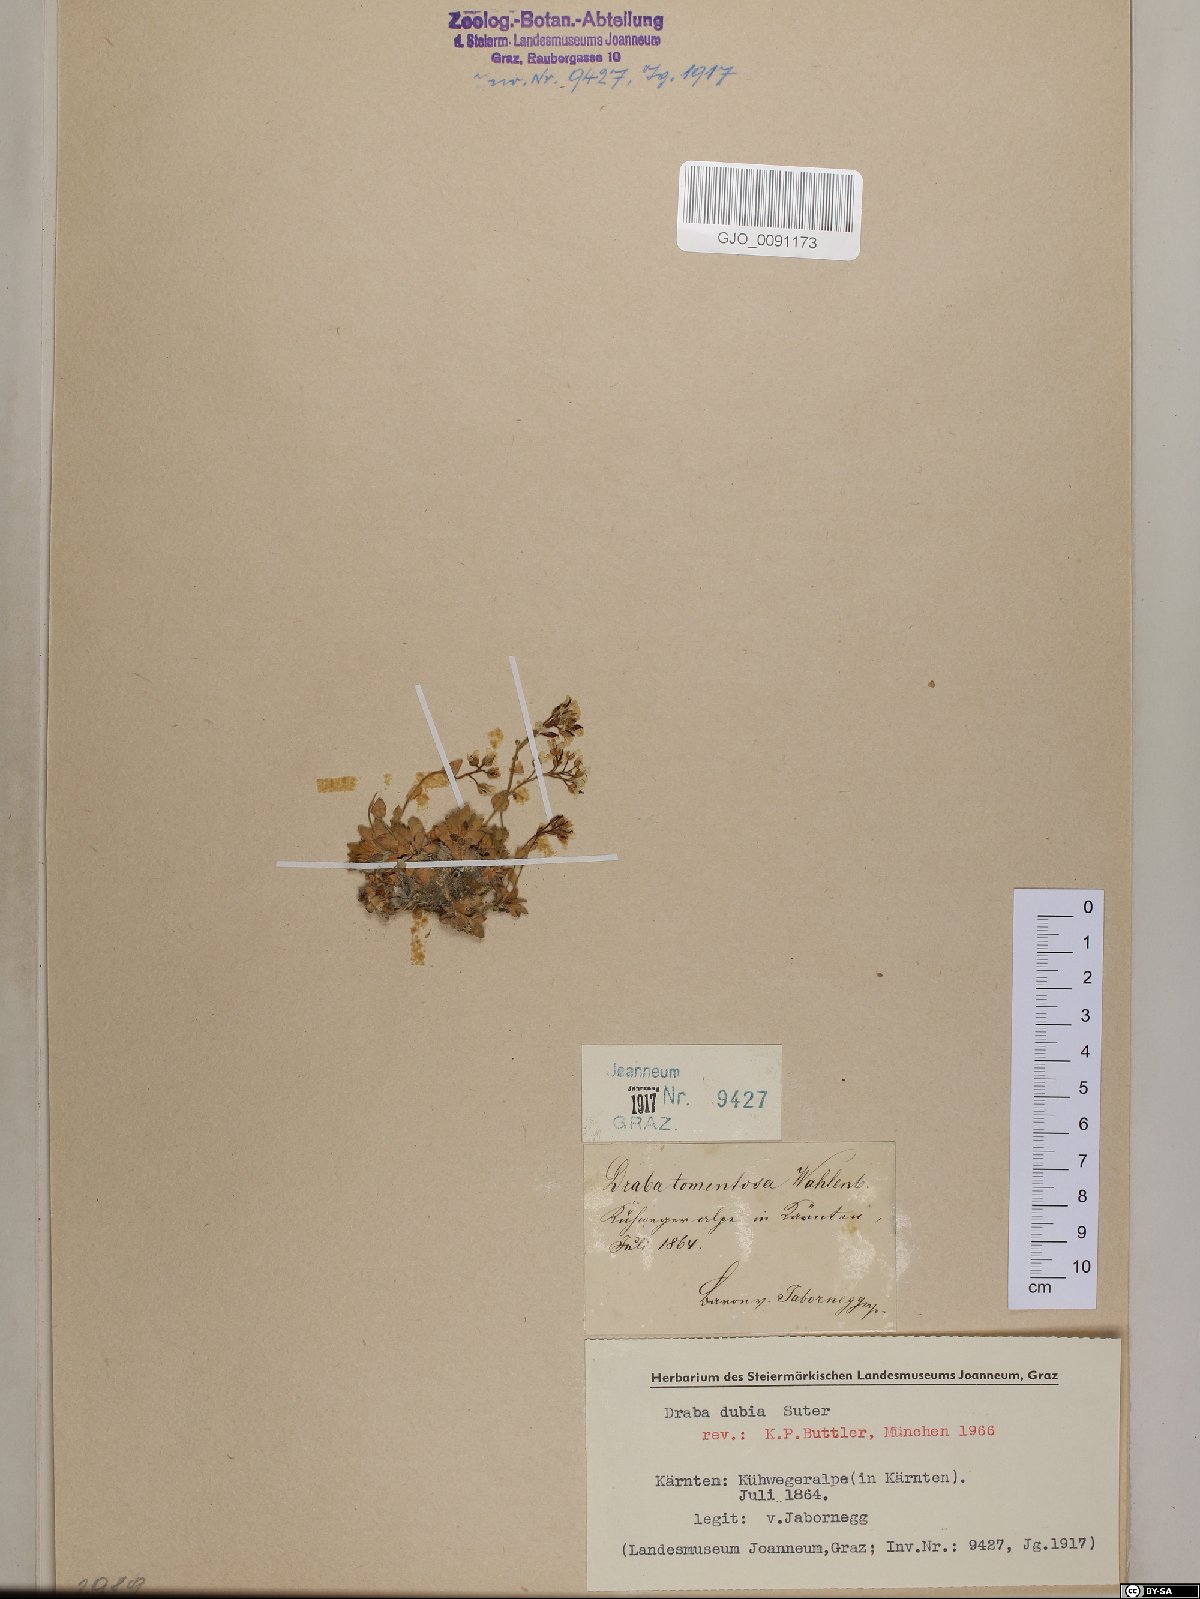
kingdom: Plantae
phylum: Tracheophyta
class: Magnoliopsida
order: Brassicales
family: Brassicaceae
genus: Draba
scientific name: Draba dubia
